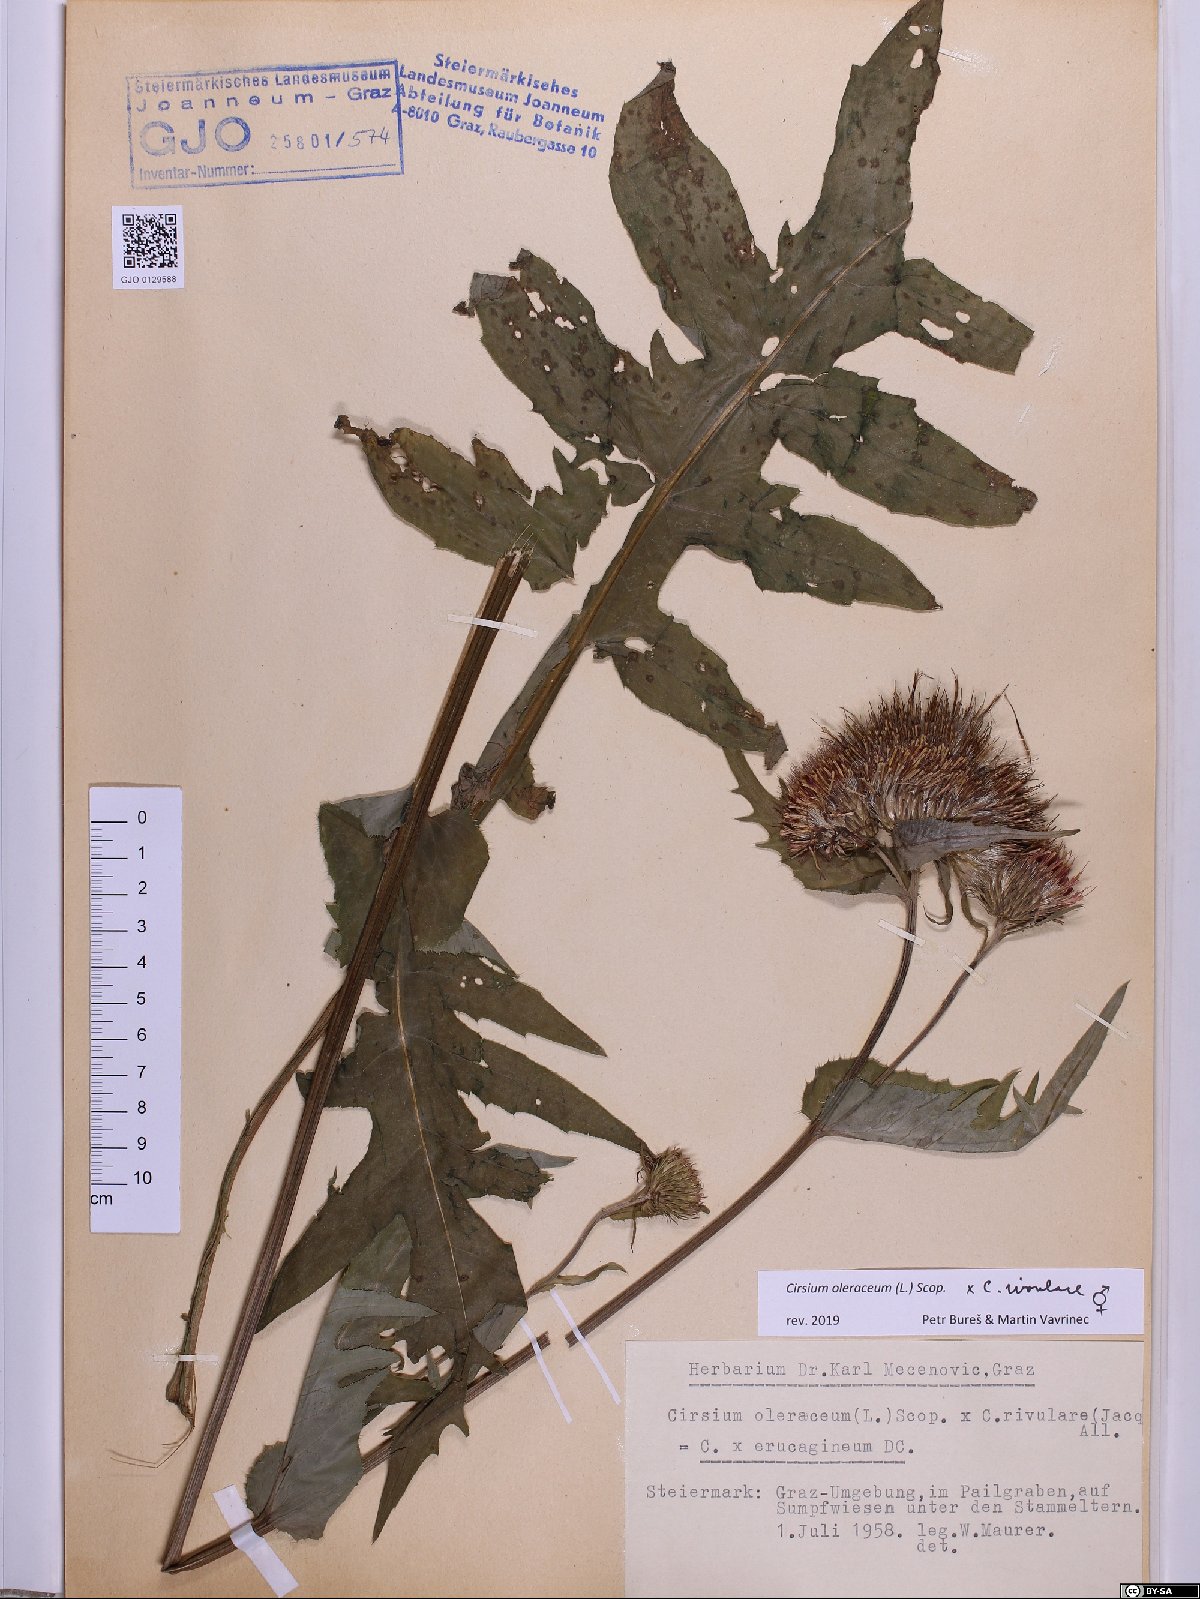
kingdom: Plantae
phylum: Tracheophyta
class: Magnoliopsida
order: Asterales
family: Asteraceae
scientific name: Asteraceae
